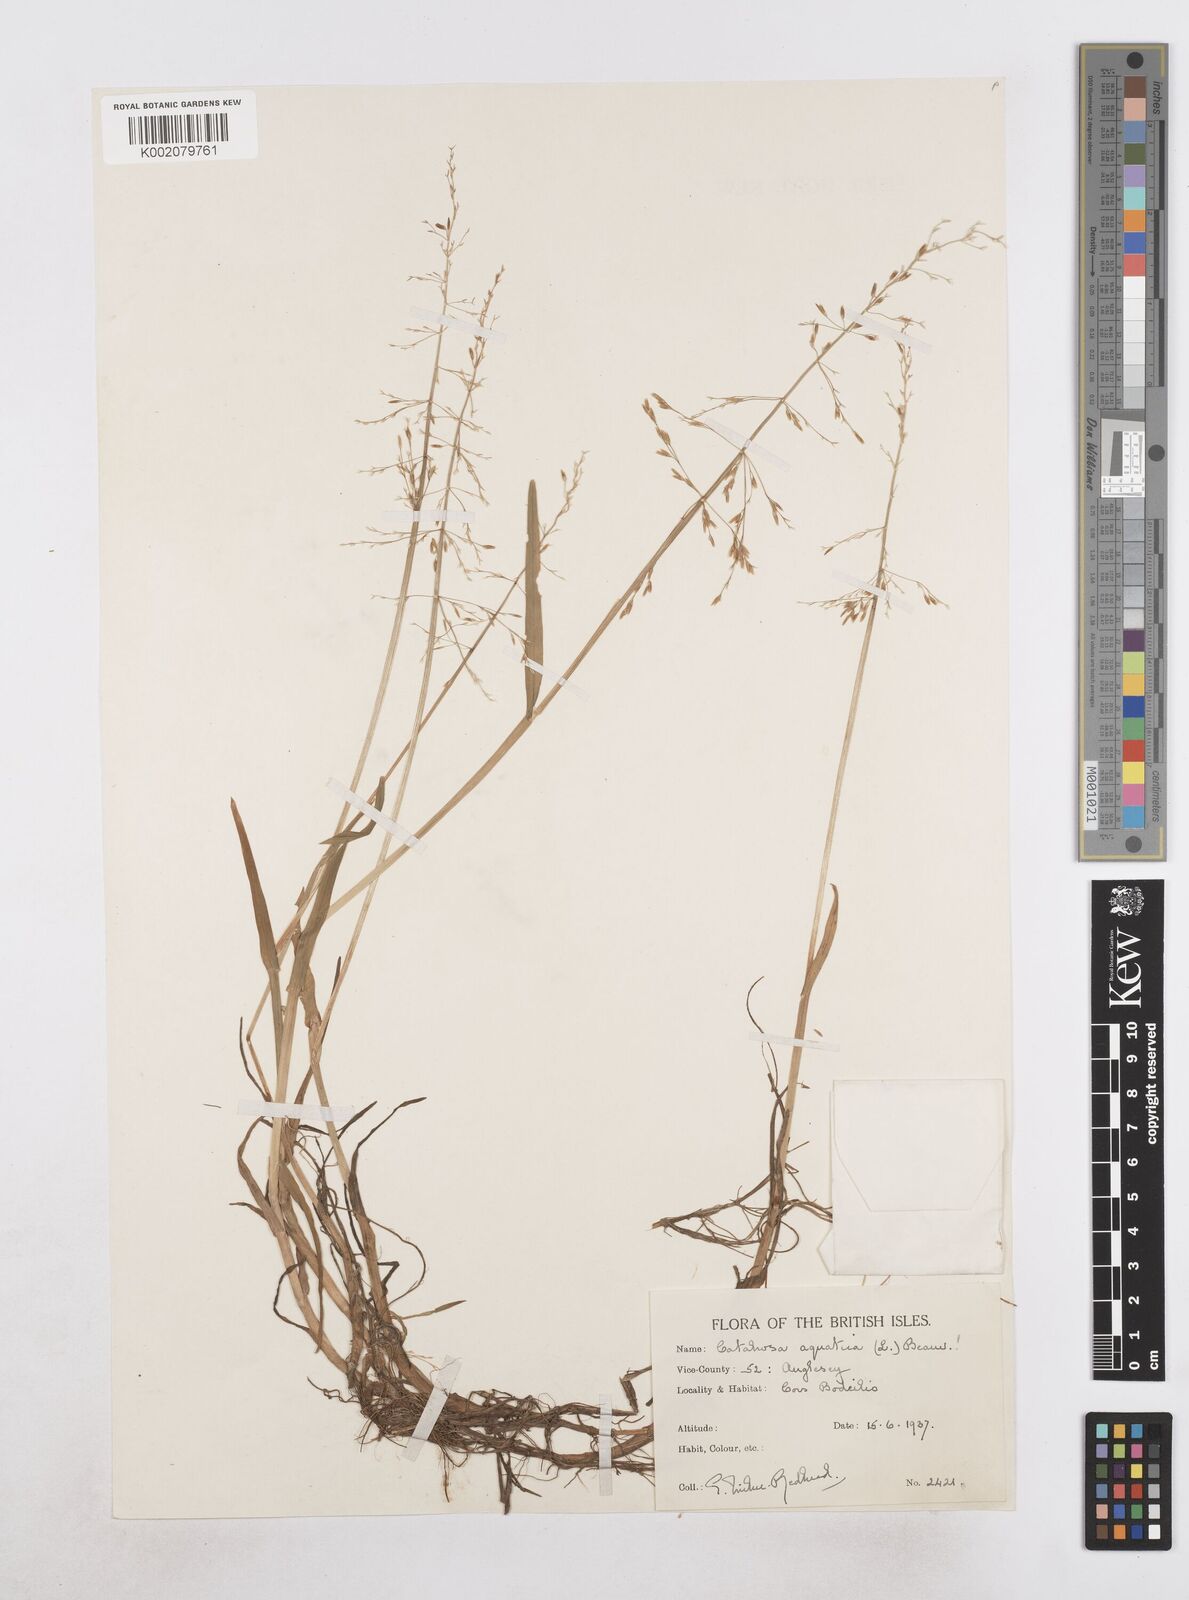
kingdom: Plantae
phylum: Tracheophyta
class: Liliopsida
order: Poales
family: Poaceae
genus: Catabrosa
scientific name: Catabrosa aquatica
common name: Whorl-grass
